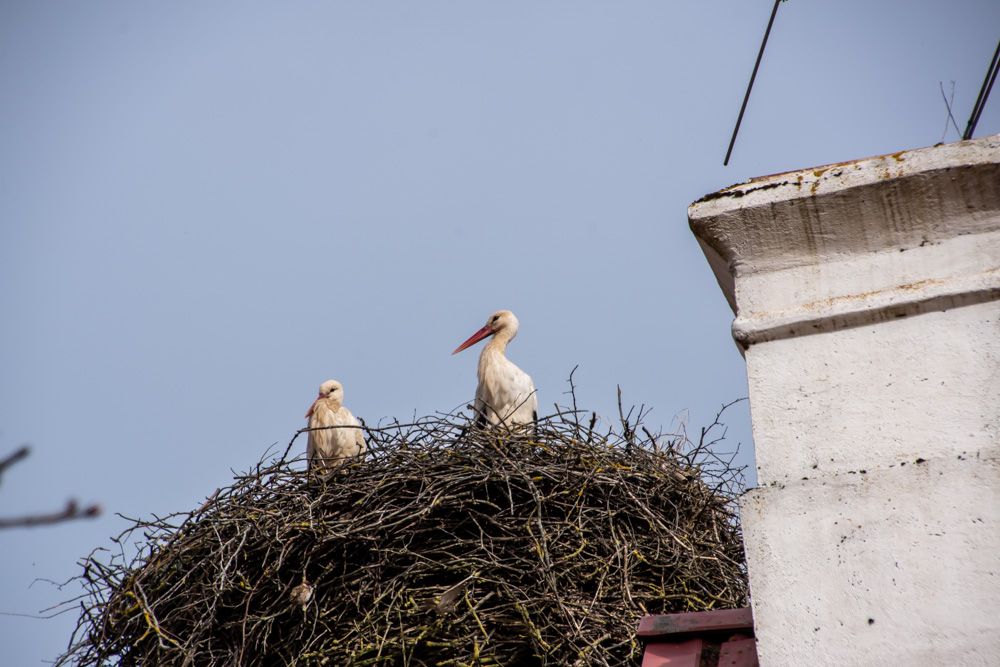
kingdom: Animalia
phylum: Chordata
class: Aves
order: Ciconiiformes
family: Ciconiidae
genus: Ciconia
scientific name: Ciconia ciconia
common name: White stork
